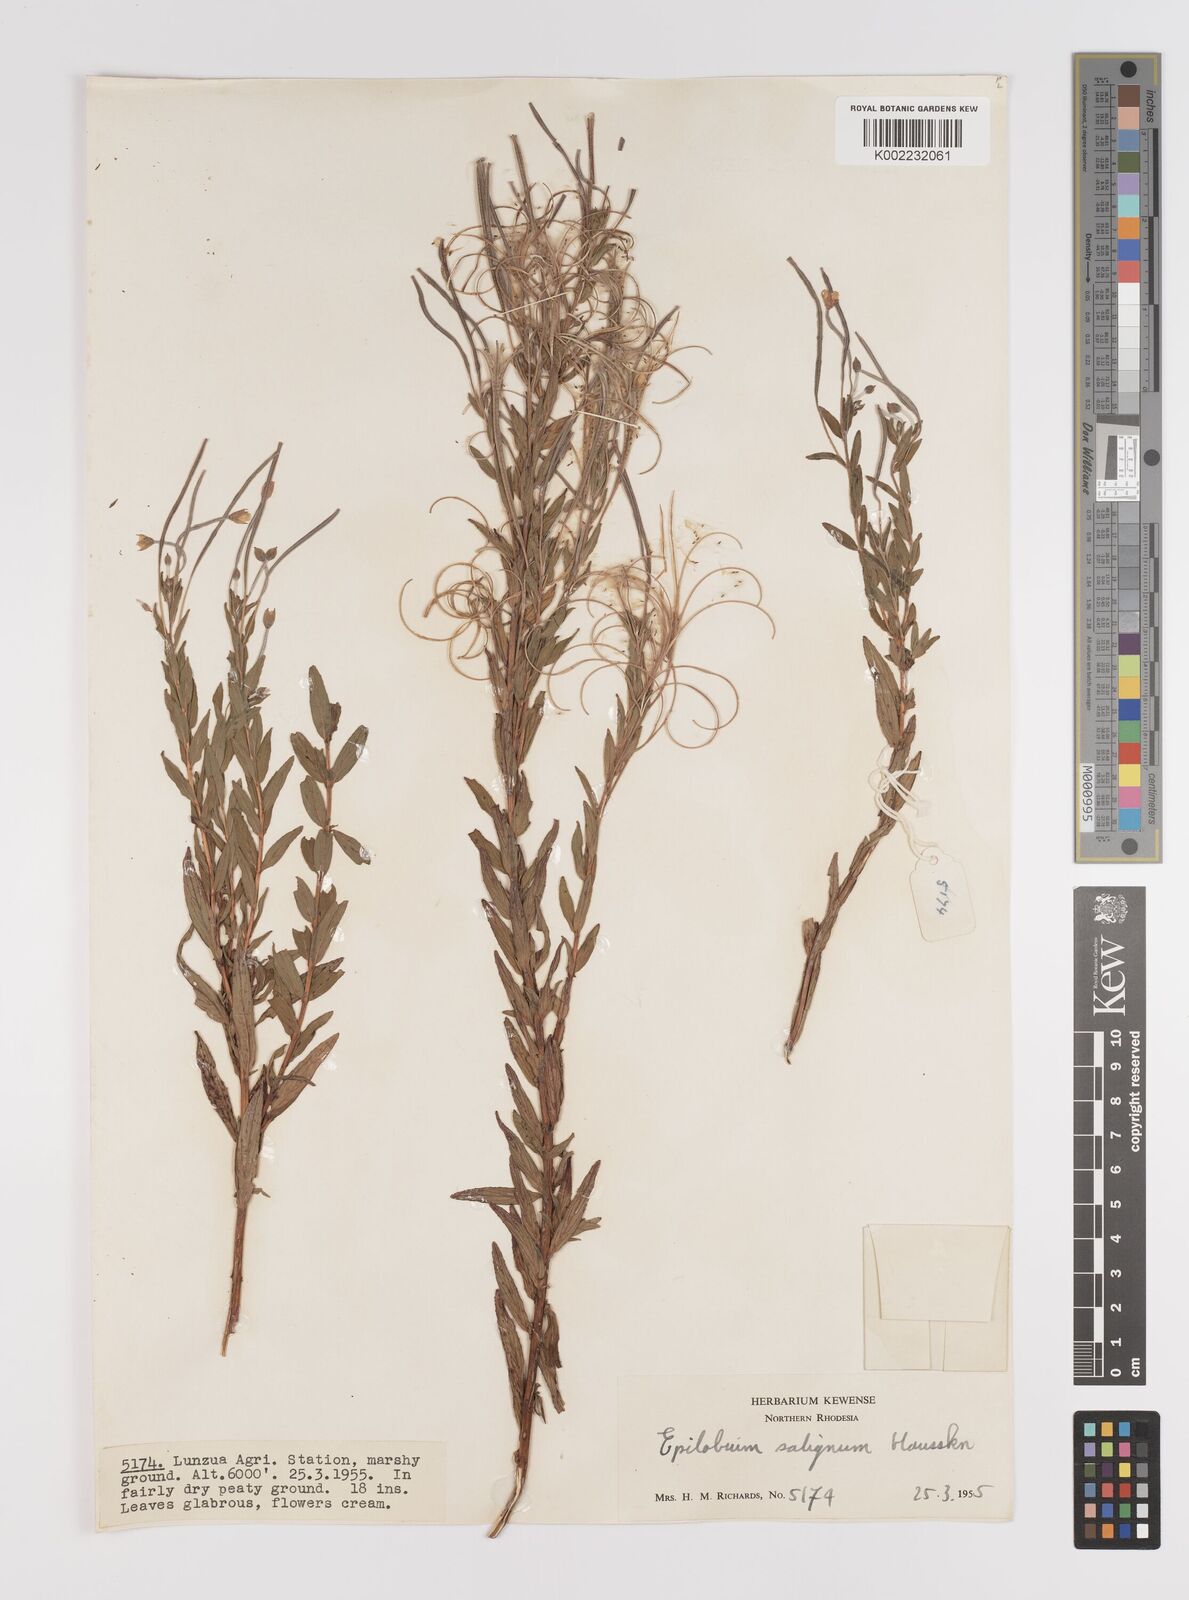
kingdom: Plantae
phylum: Tracheophyta
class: Magnoliopsida
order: Myrtales
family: Onagraceae
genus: Epilobium
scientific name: Epilobium salignum
